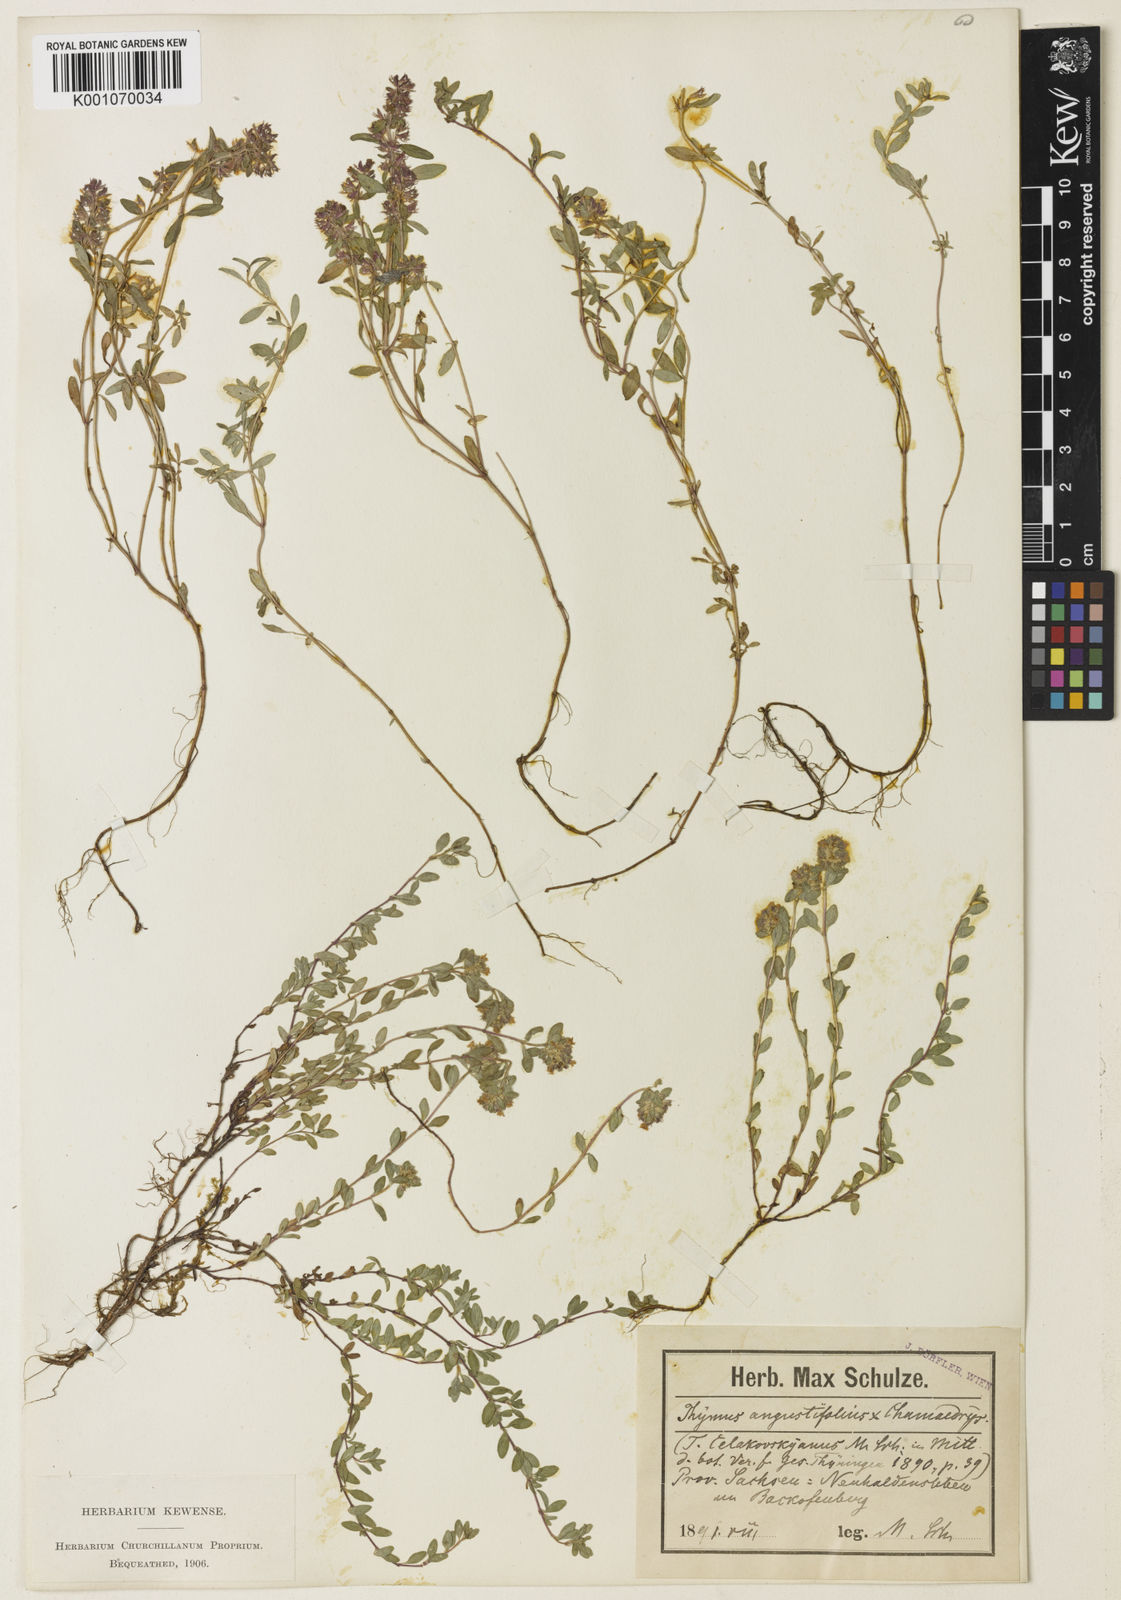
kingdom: Plantae
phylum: Tracheophyta
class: Magnoliopsida
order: Lamiales
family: Lamiaceae
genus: Thymus
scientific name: Thymus serpyllum
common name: Breckland thyme
